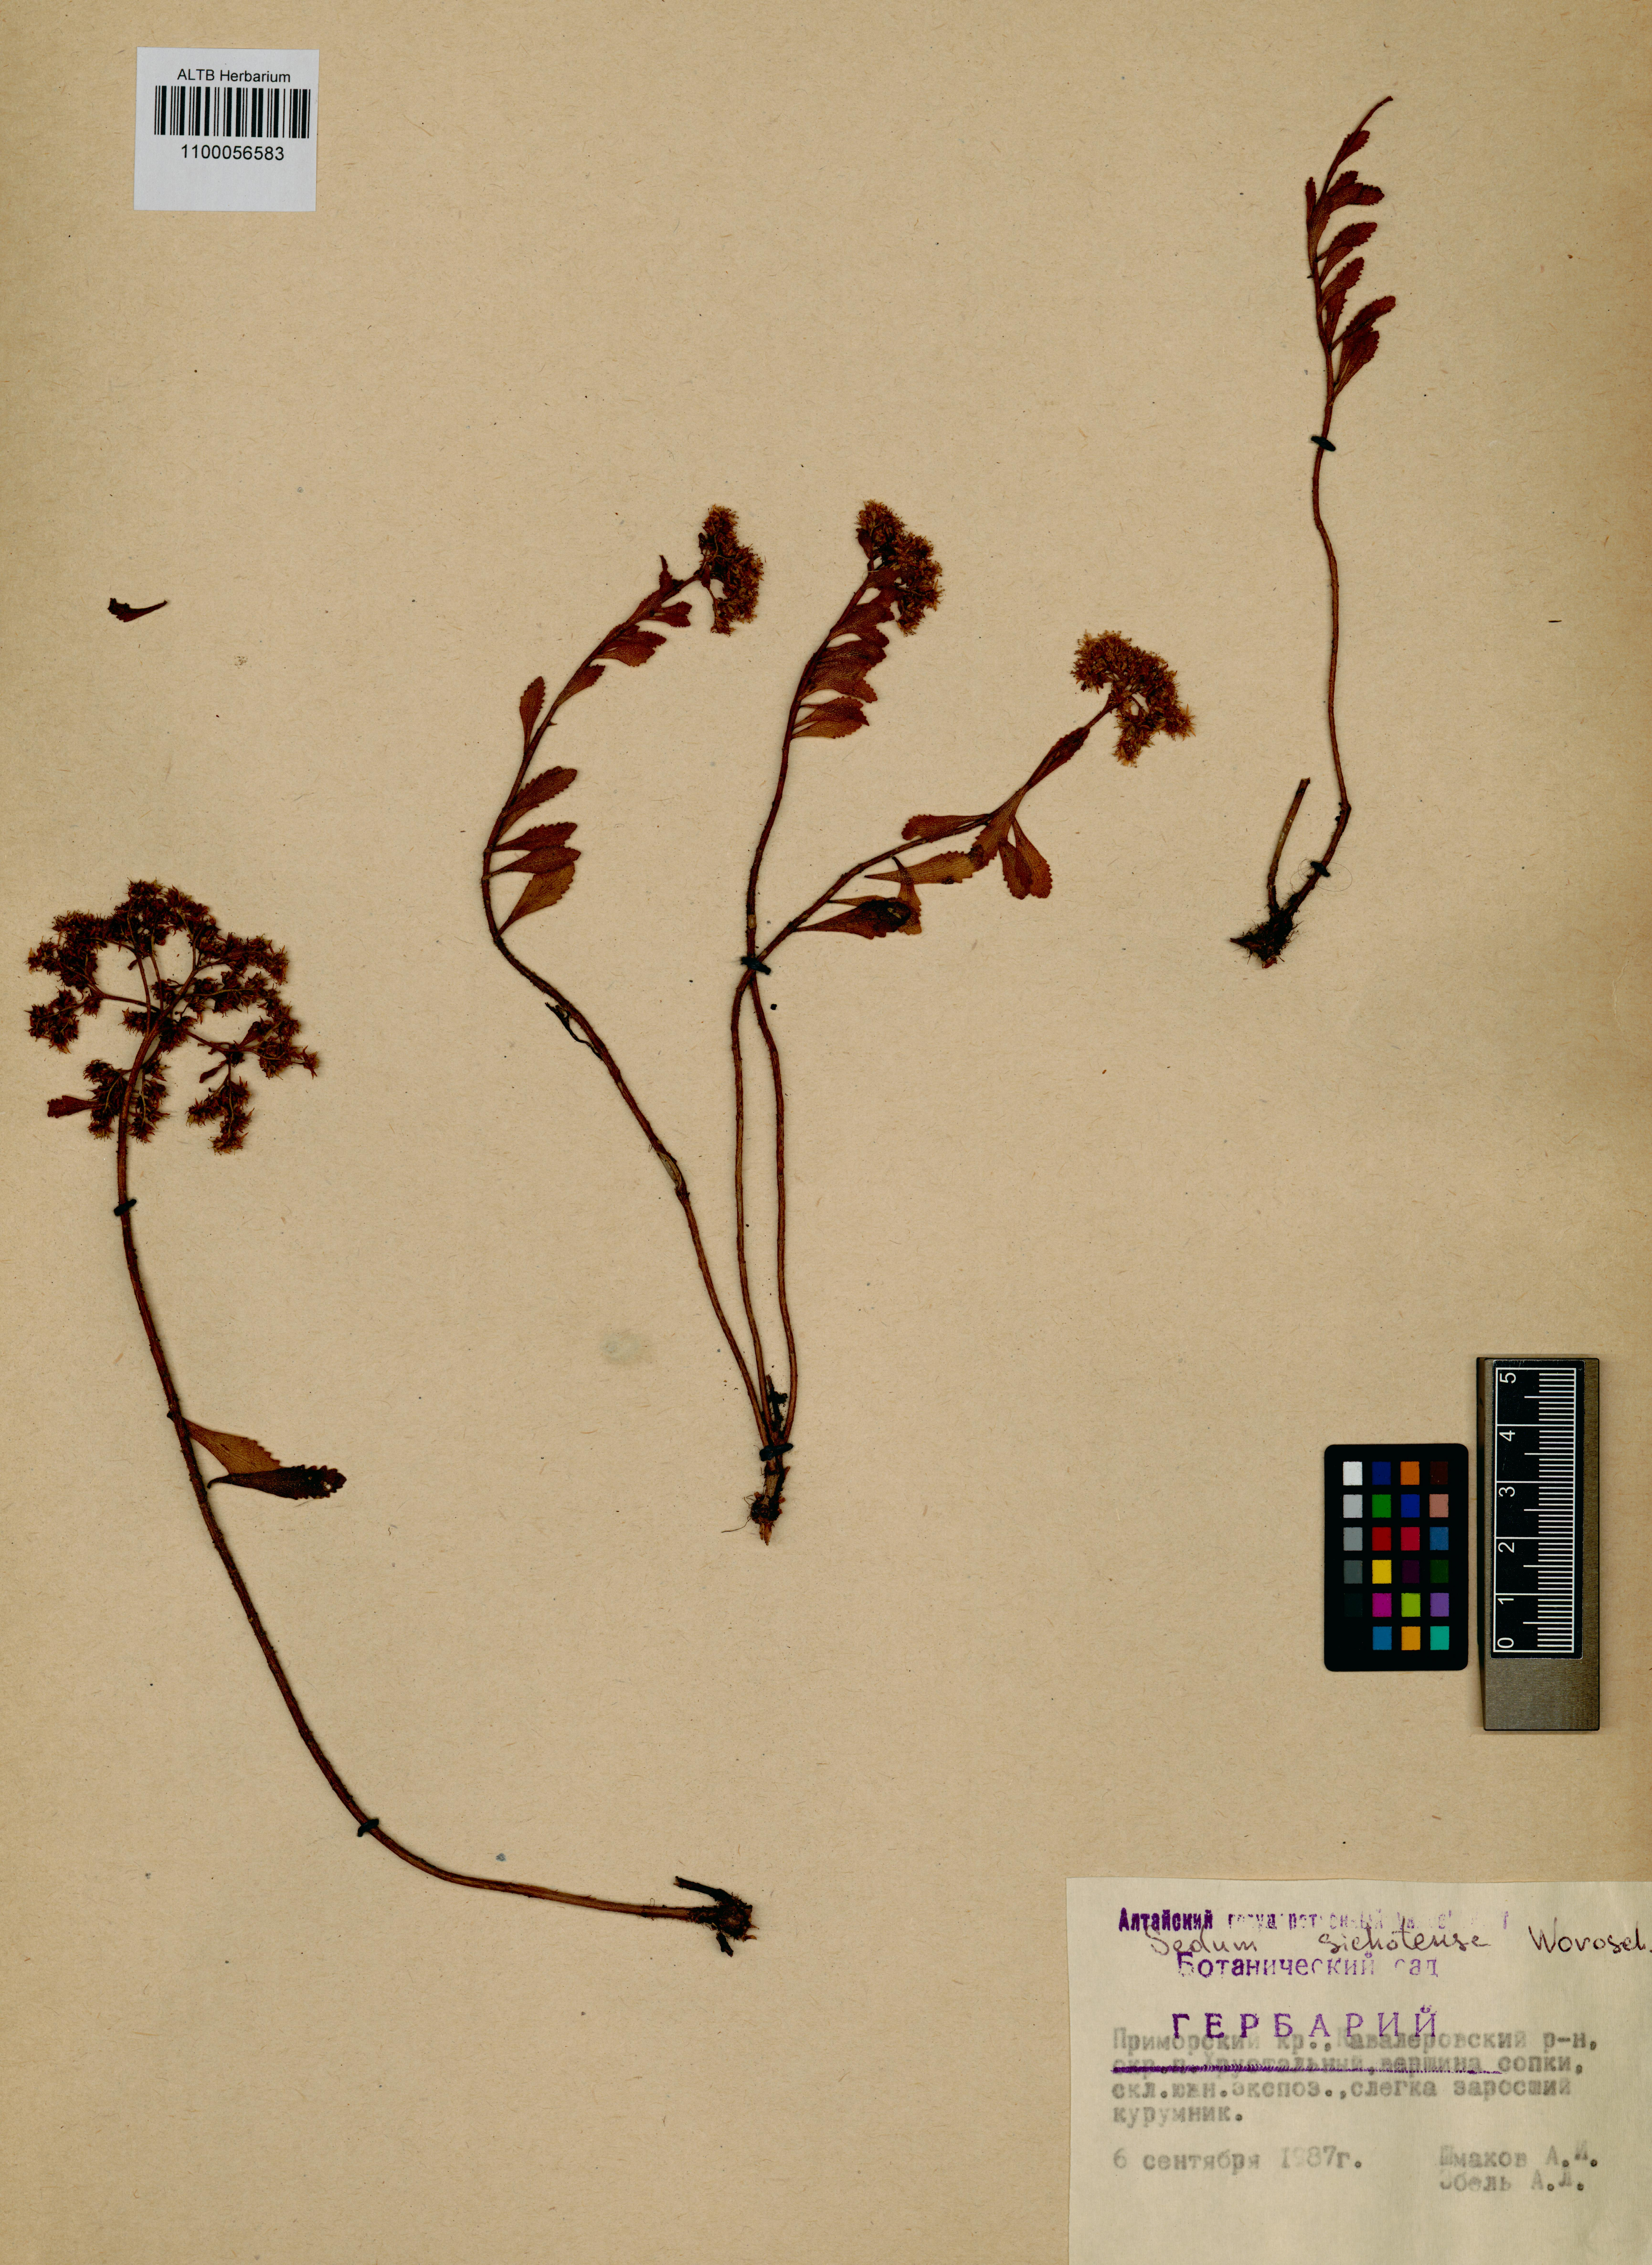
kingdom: Plantae
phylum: Tracheophyta
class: Magnoliopsida
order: Saxifragales
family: Crassulaceae
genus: Phedimus
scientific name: Phedimus sichotensis
